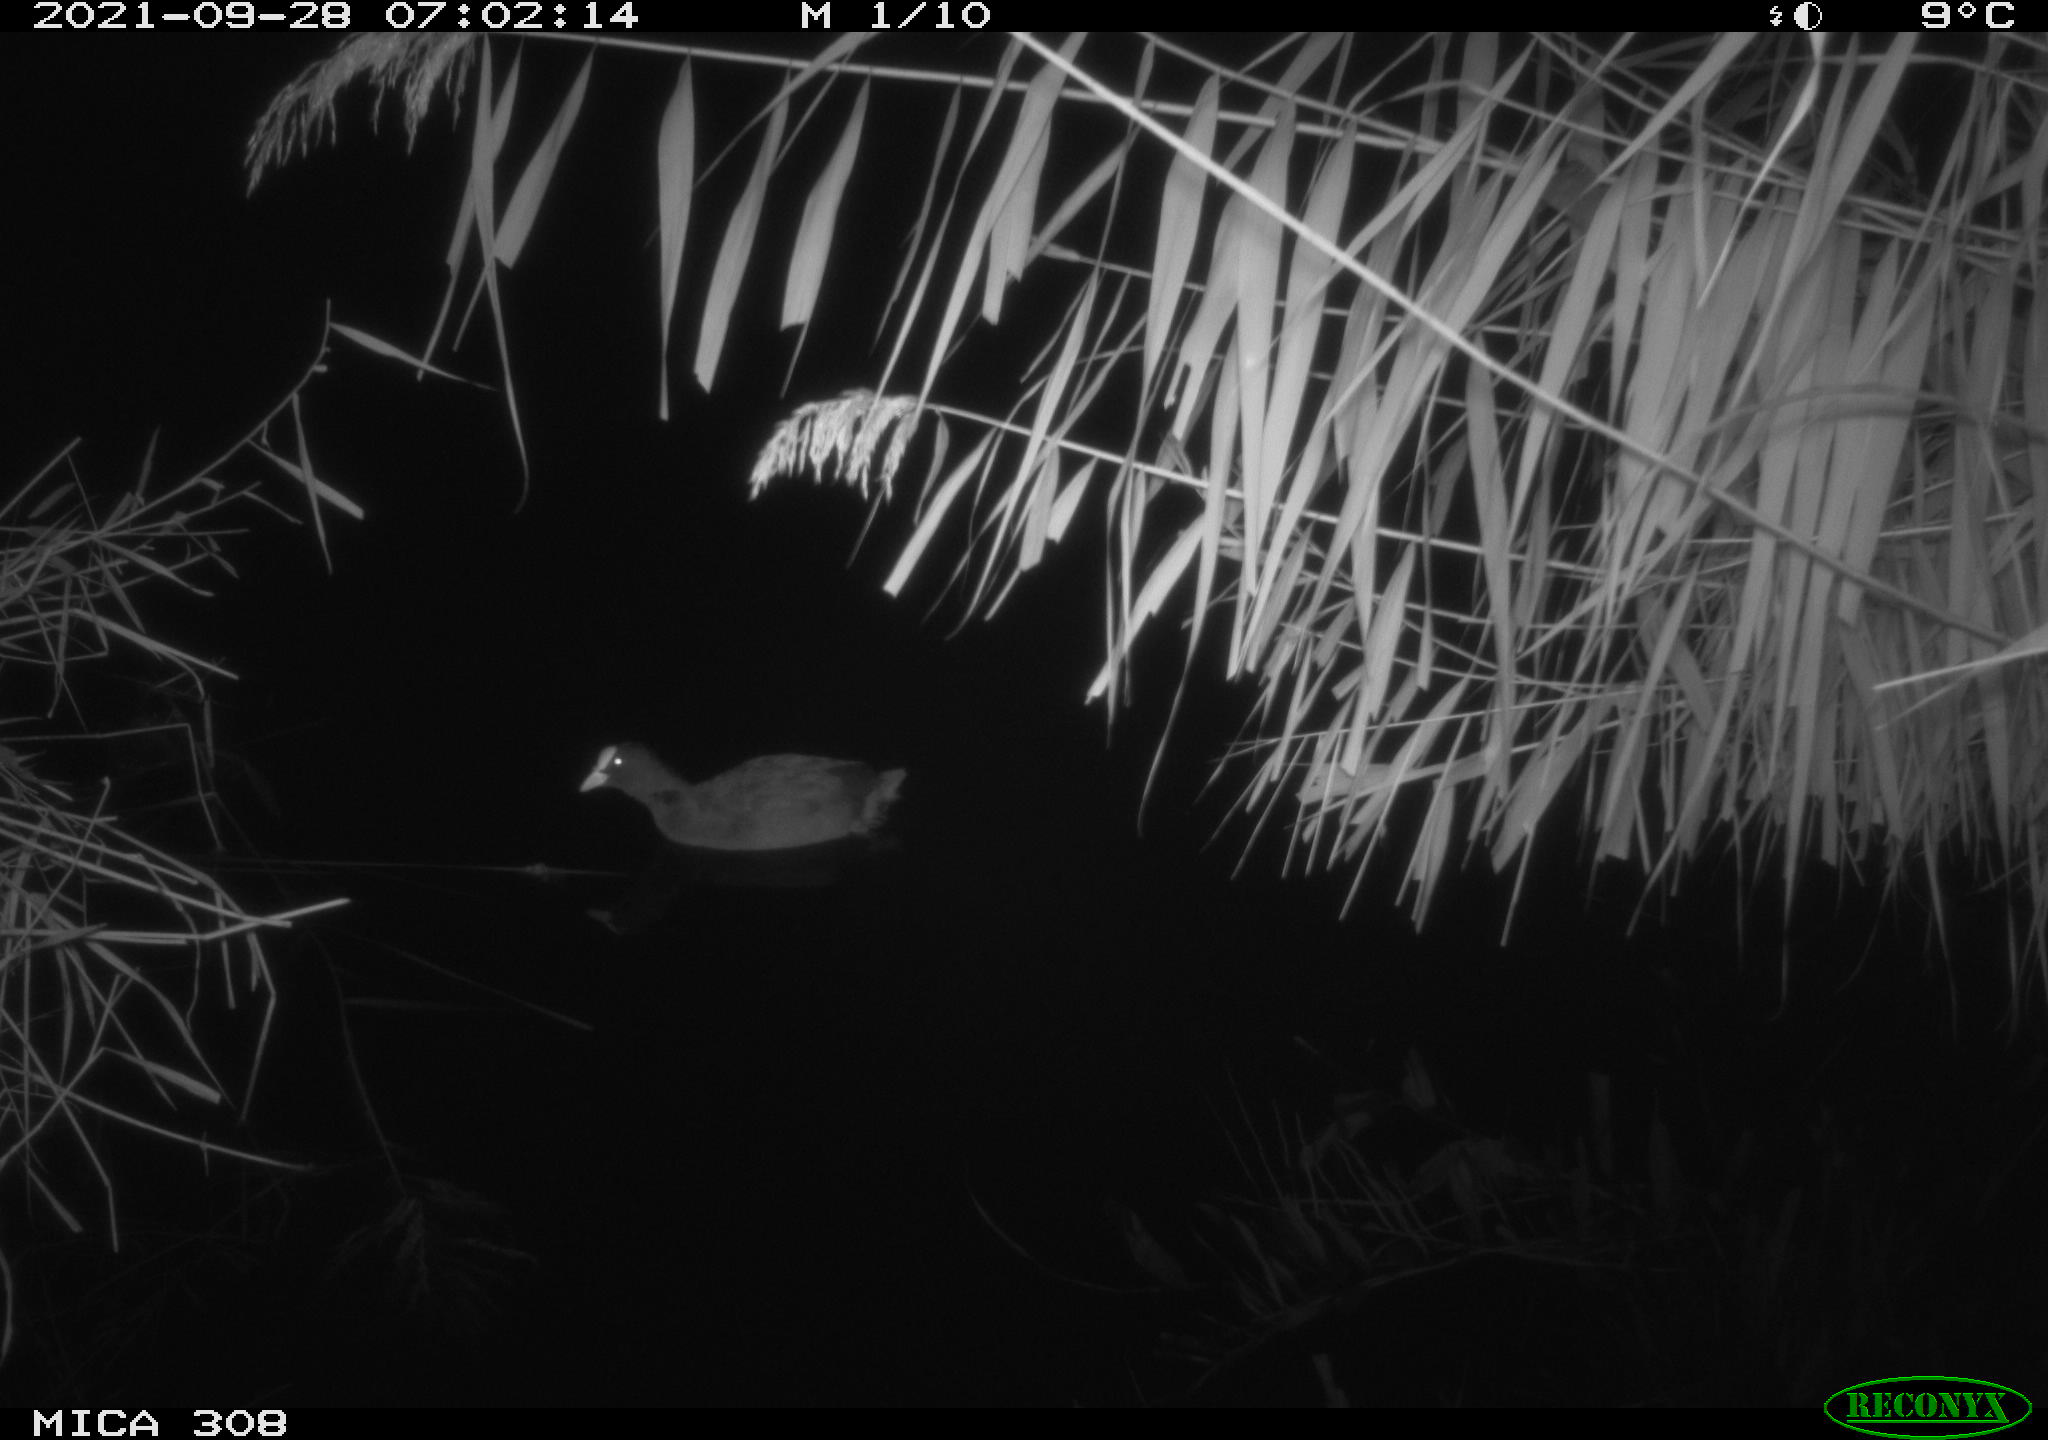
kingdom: Animalia
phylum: Chordata
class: Aves
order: Gruiformes
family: Rallidae
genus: Fulica
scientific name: Fulica atra
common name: Eurasian coot
